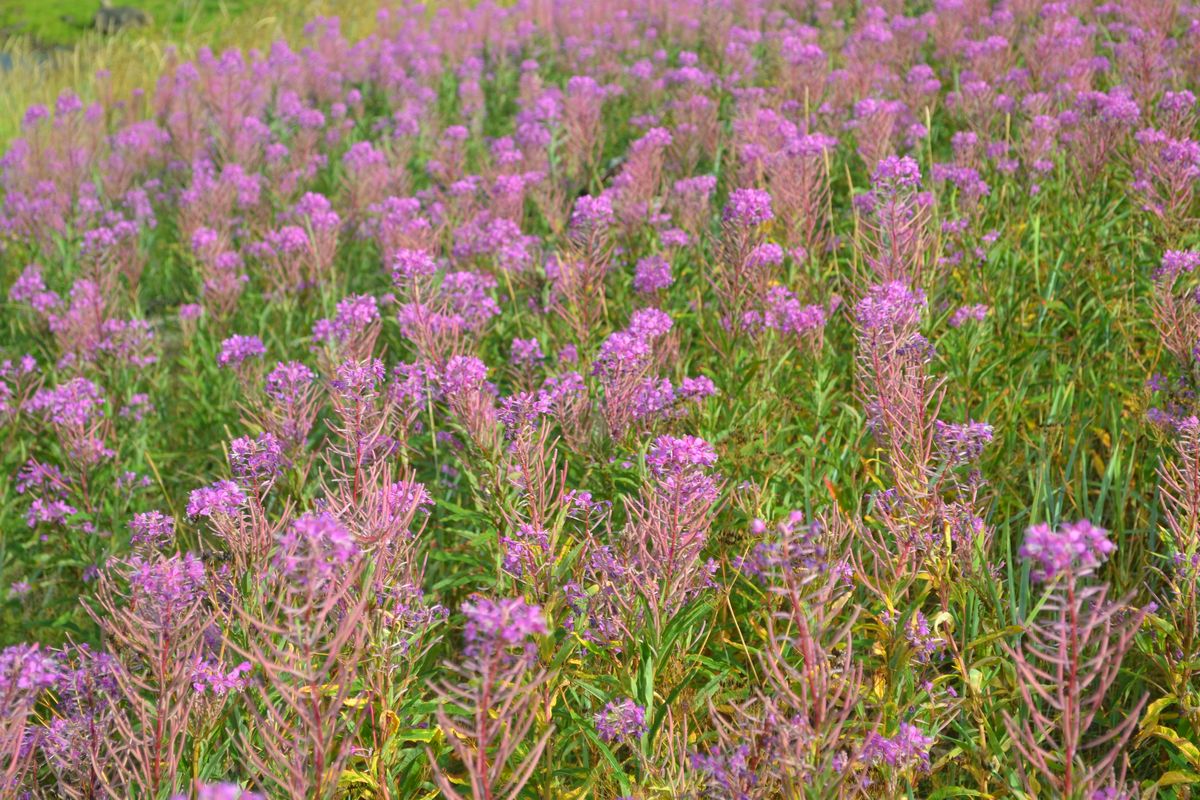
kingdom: Plantae
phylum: Tracheophyta
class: Magnoliopsida
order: Myrtales
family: Onagraceae
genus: Chamaenerion
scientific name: Chamaenerion angustifolium
